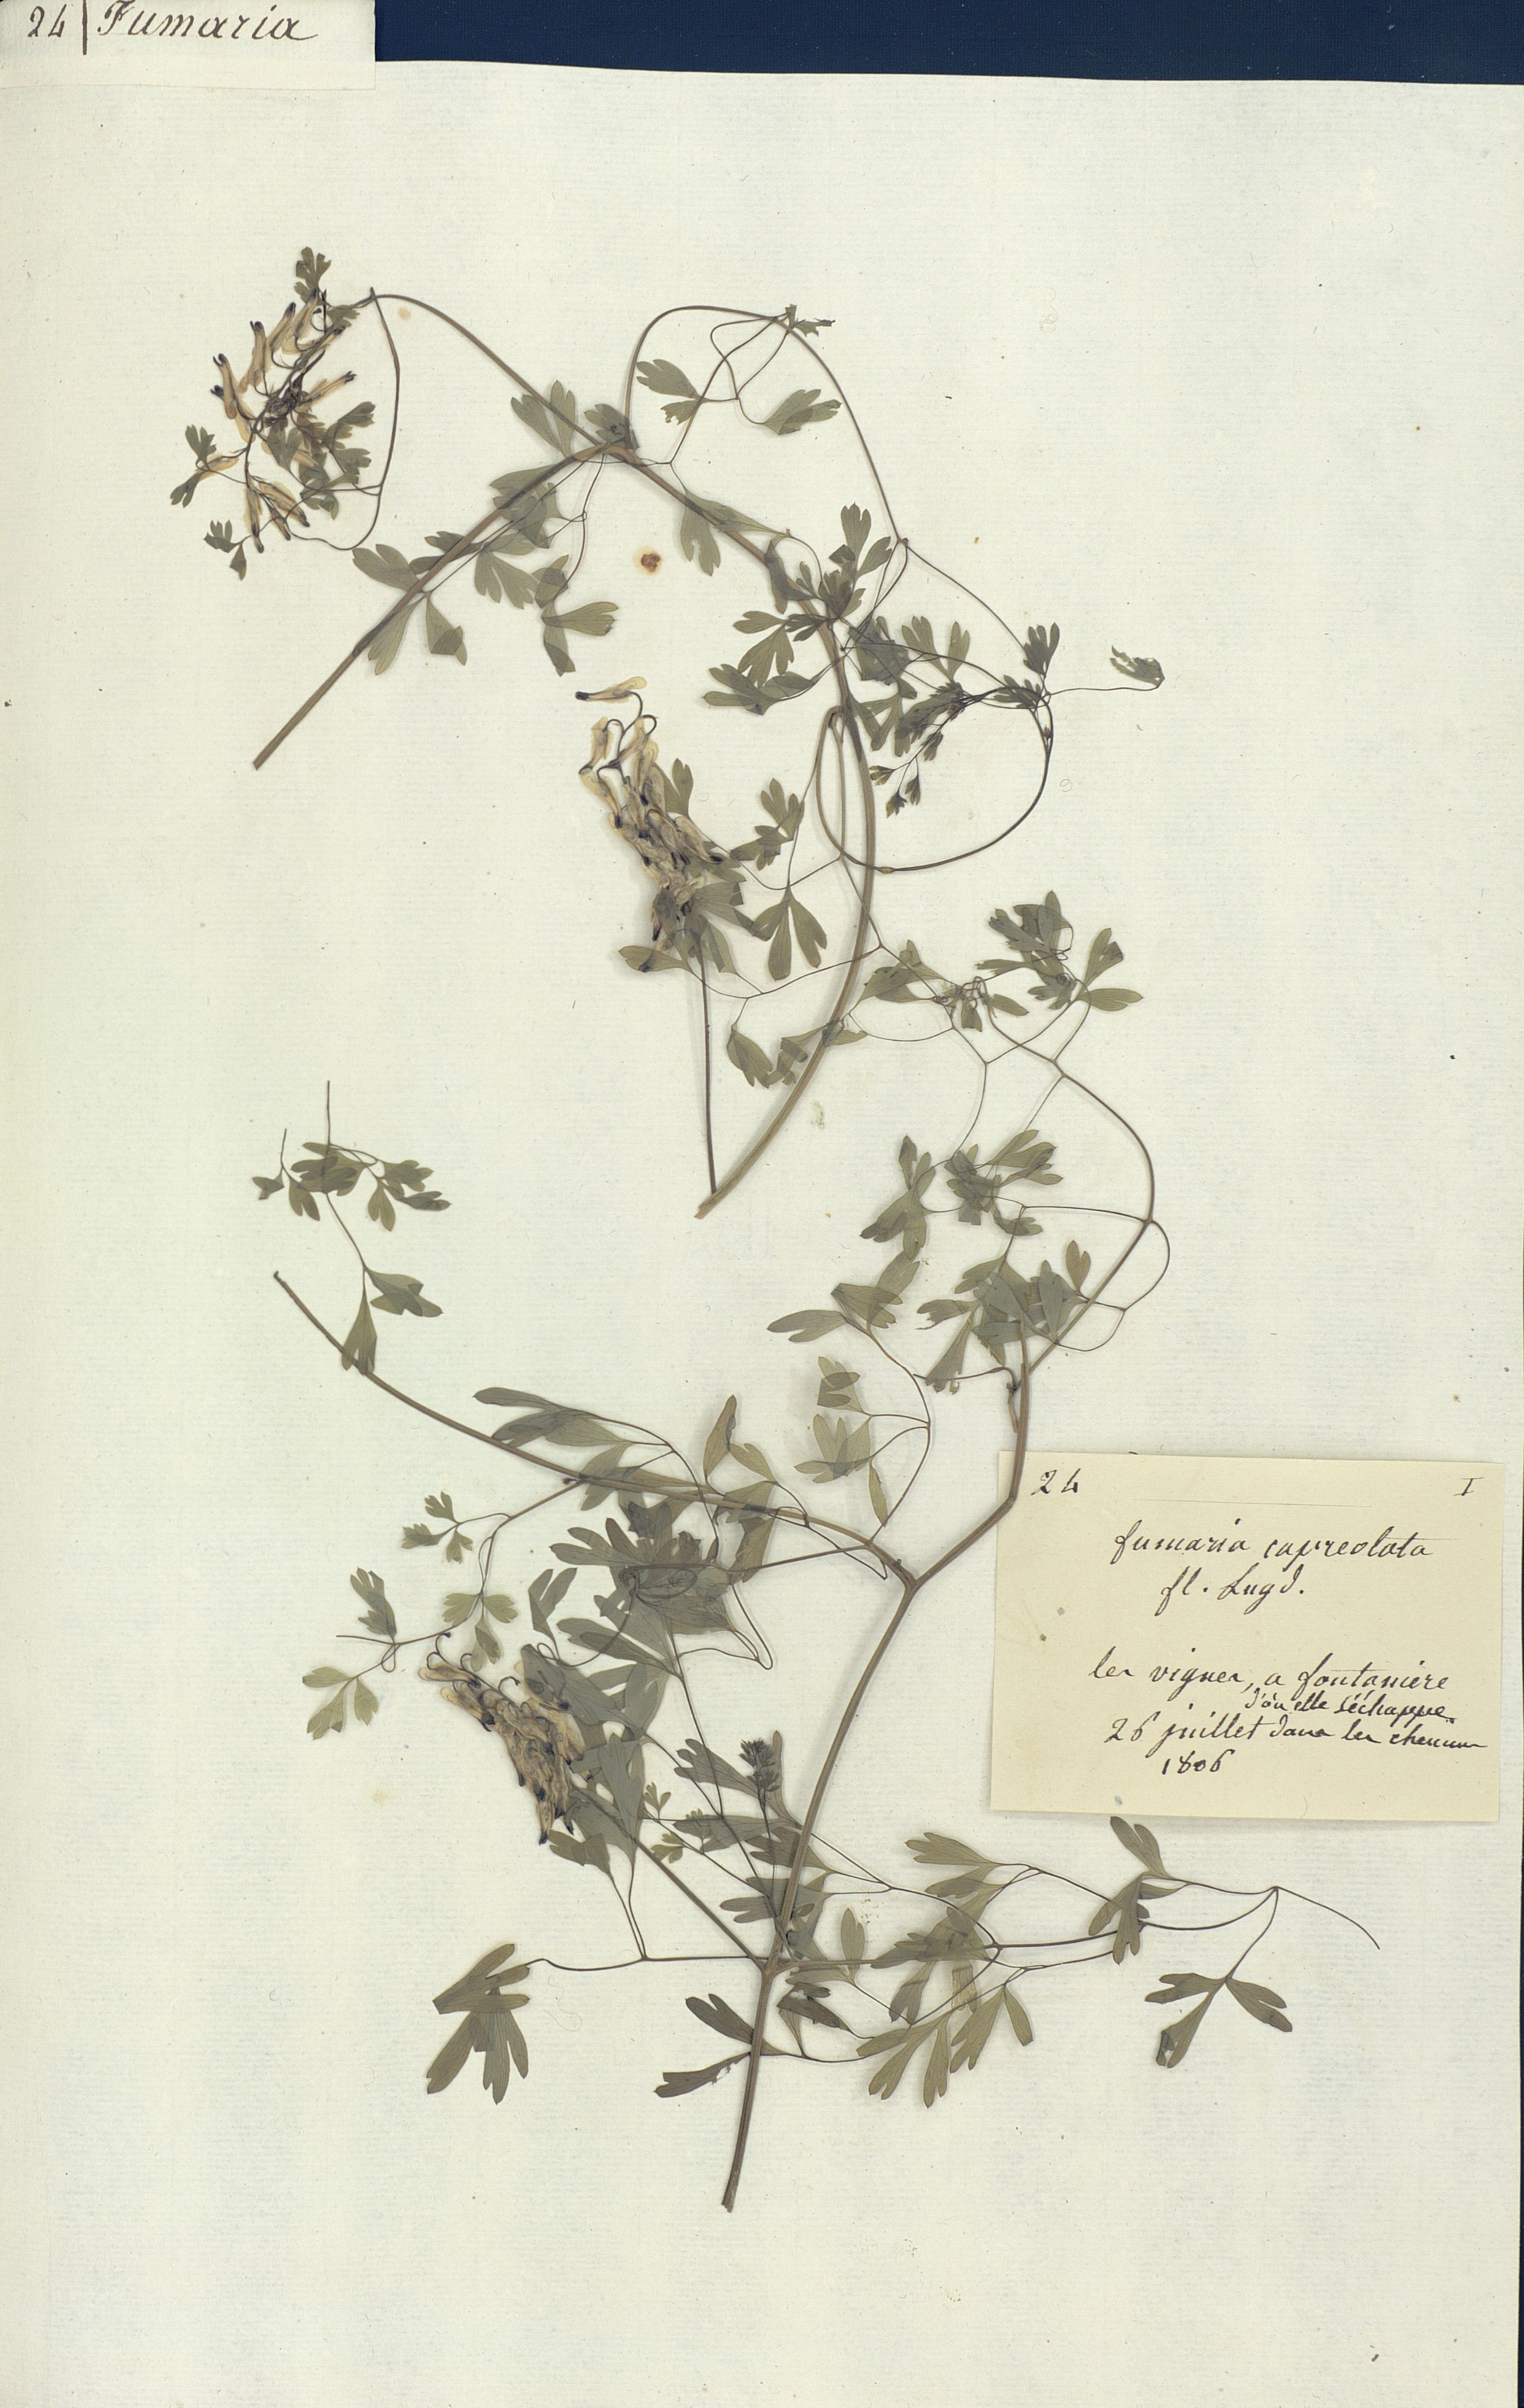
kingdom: Plantae
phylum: Tracheophyta
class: Magnoliopsida
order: Ranunculales
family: Papaveraceae
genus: Fumaria
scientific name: Fumaria capreolata
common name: White ramping-fumitory
